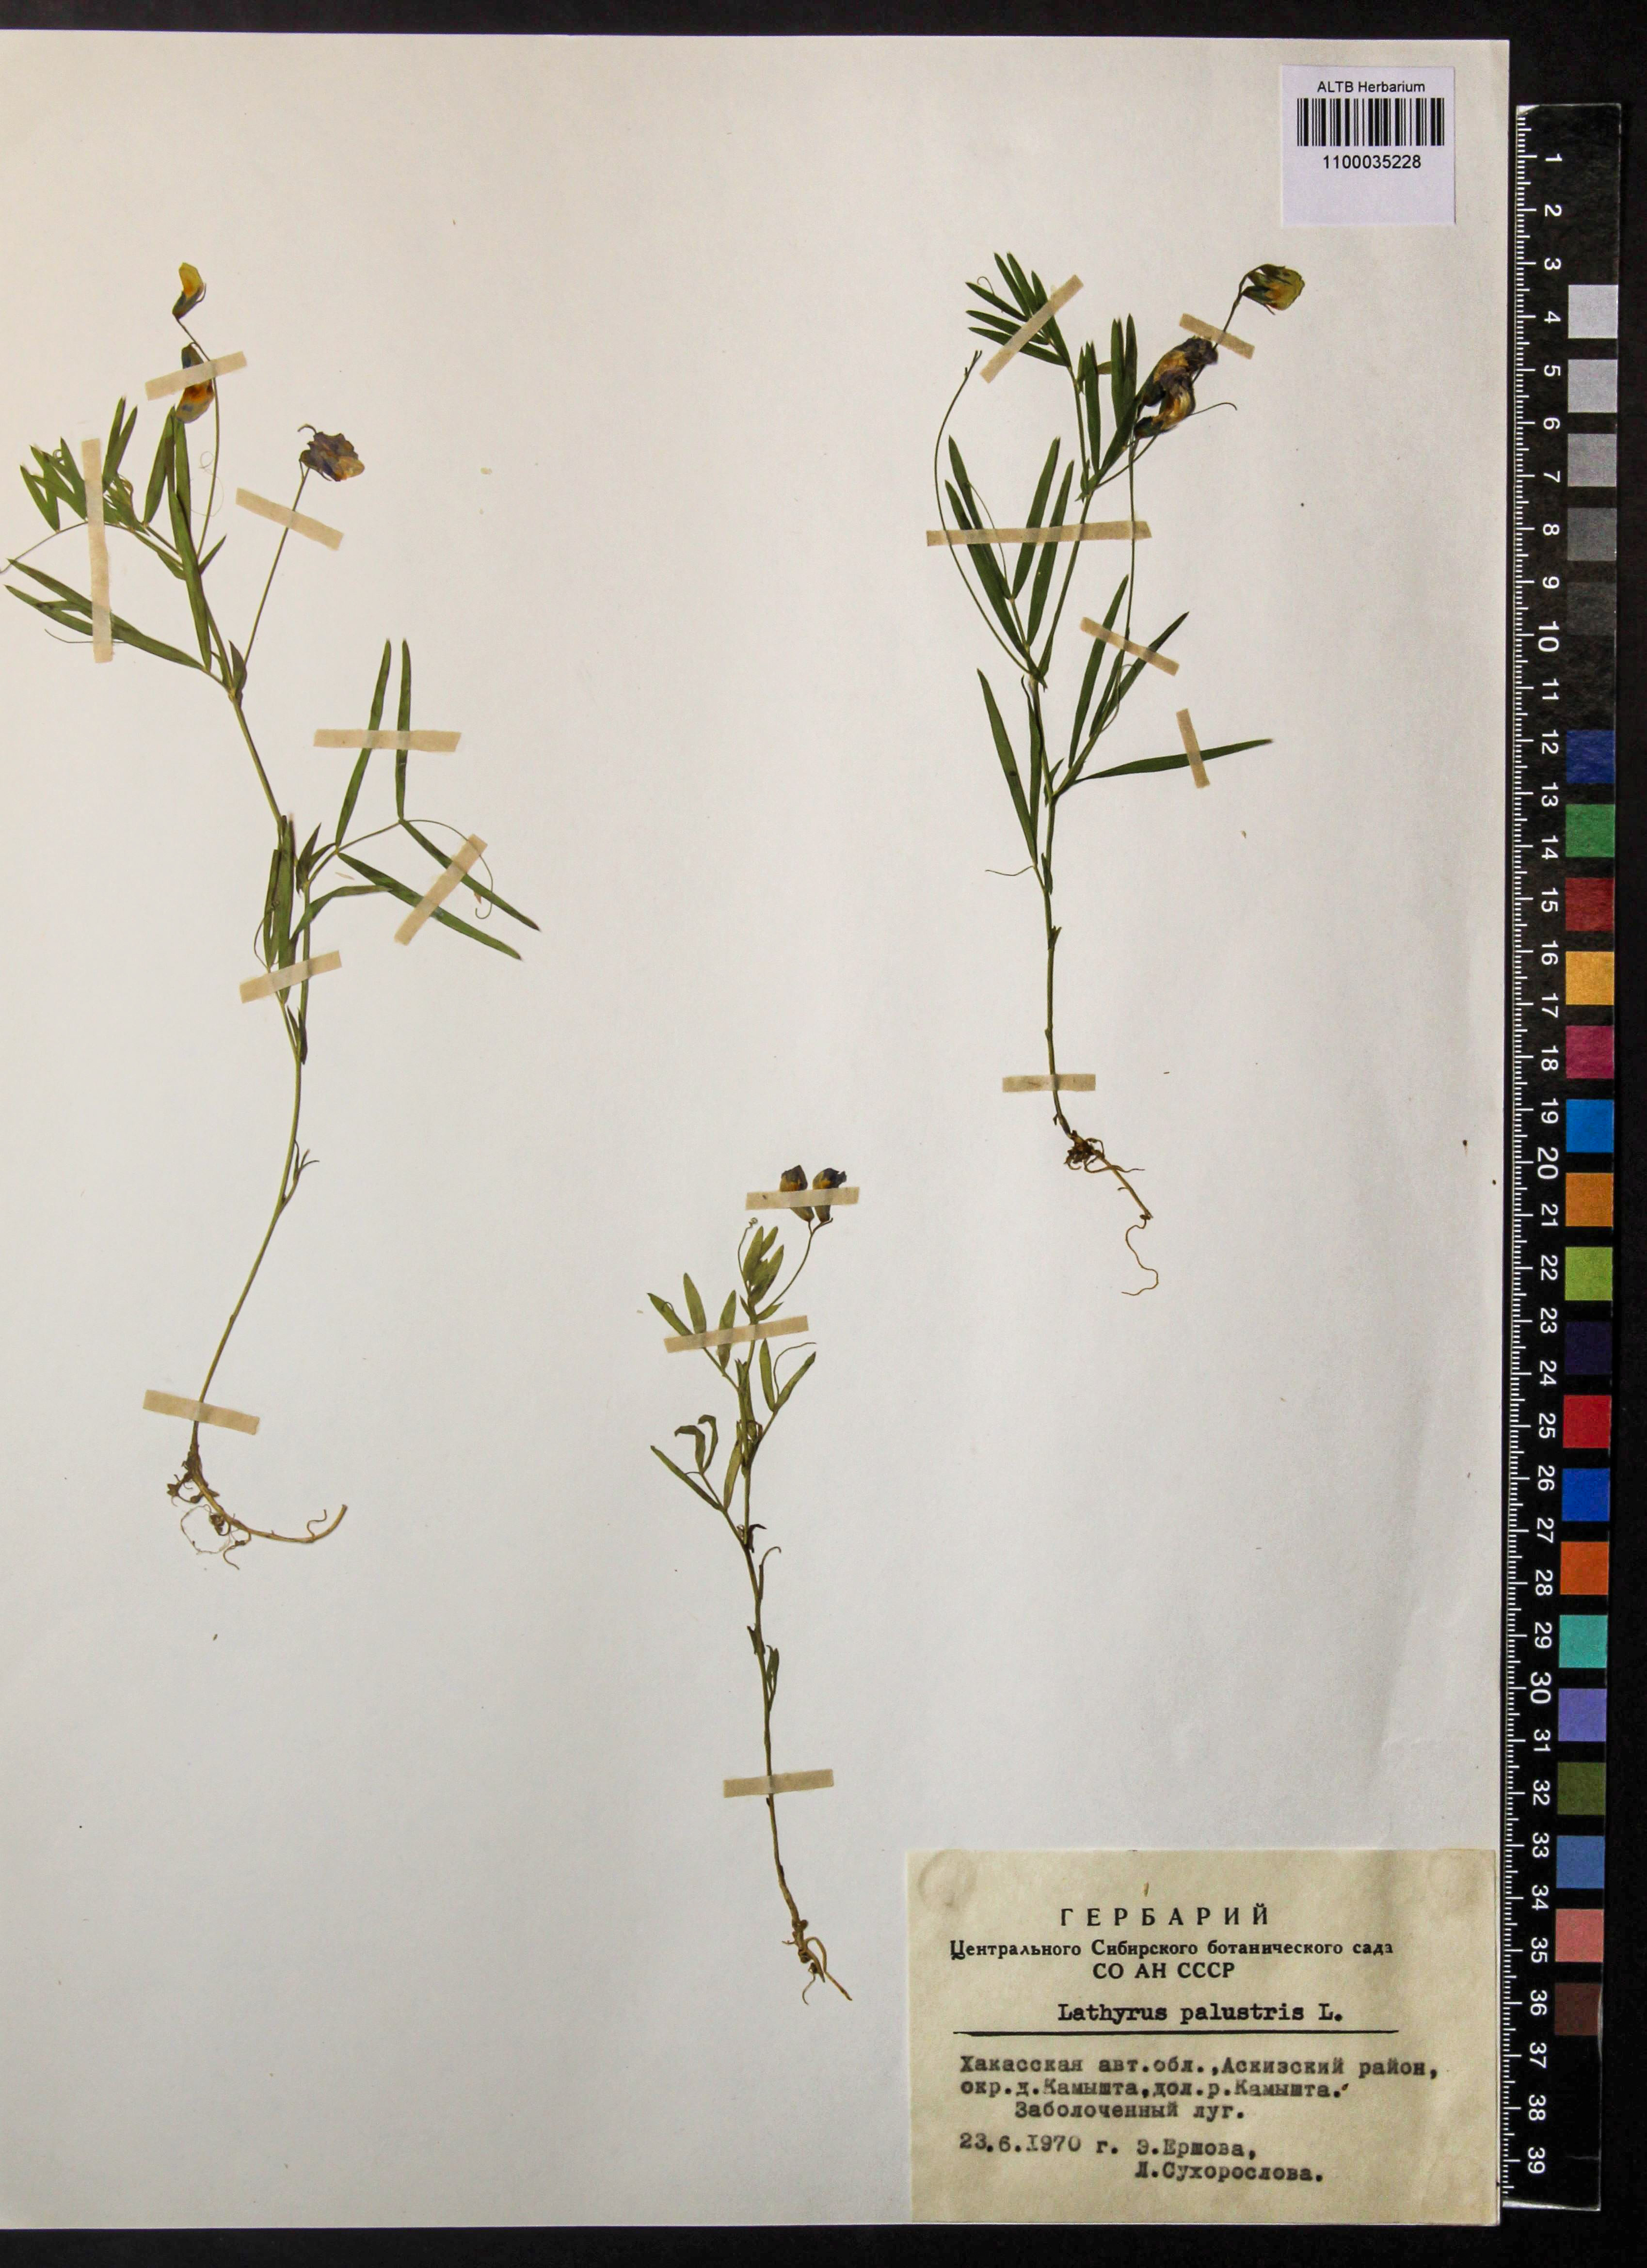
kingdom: Plantae
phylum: Tracheophyta
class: Magnoliopsida
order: Fabales
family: Fabaceae
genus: Lathyrus
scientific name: Lathyrus palustris
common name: Marsh pea
